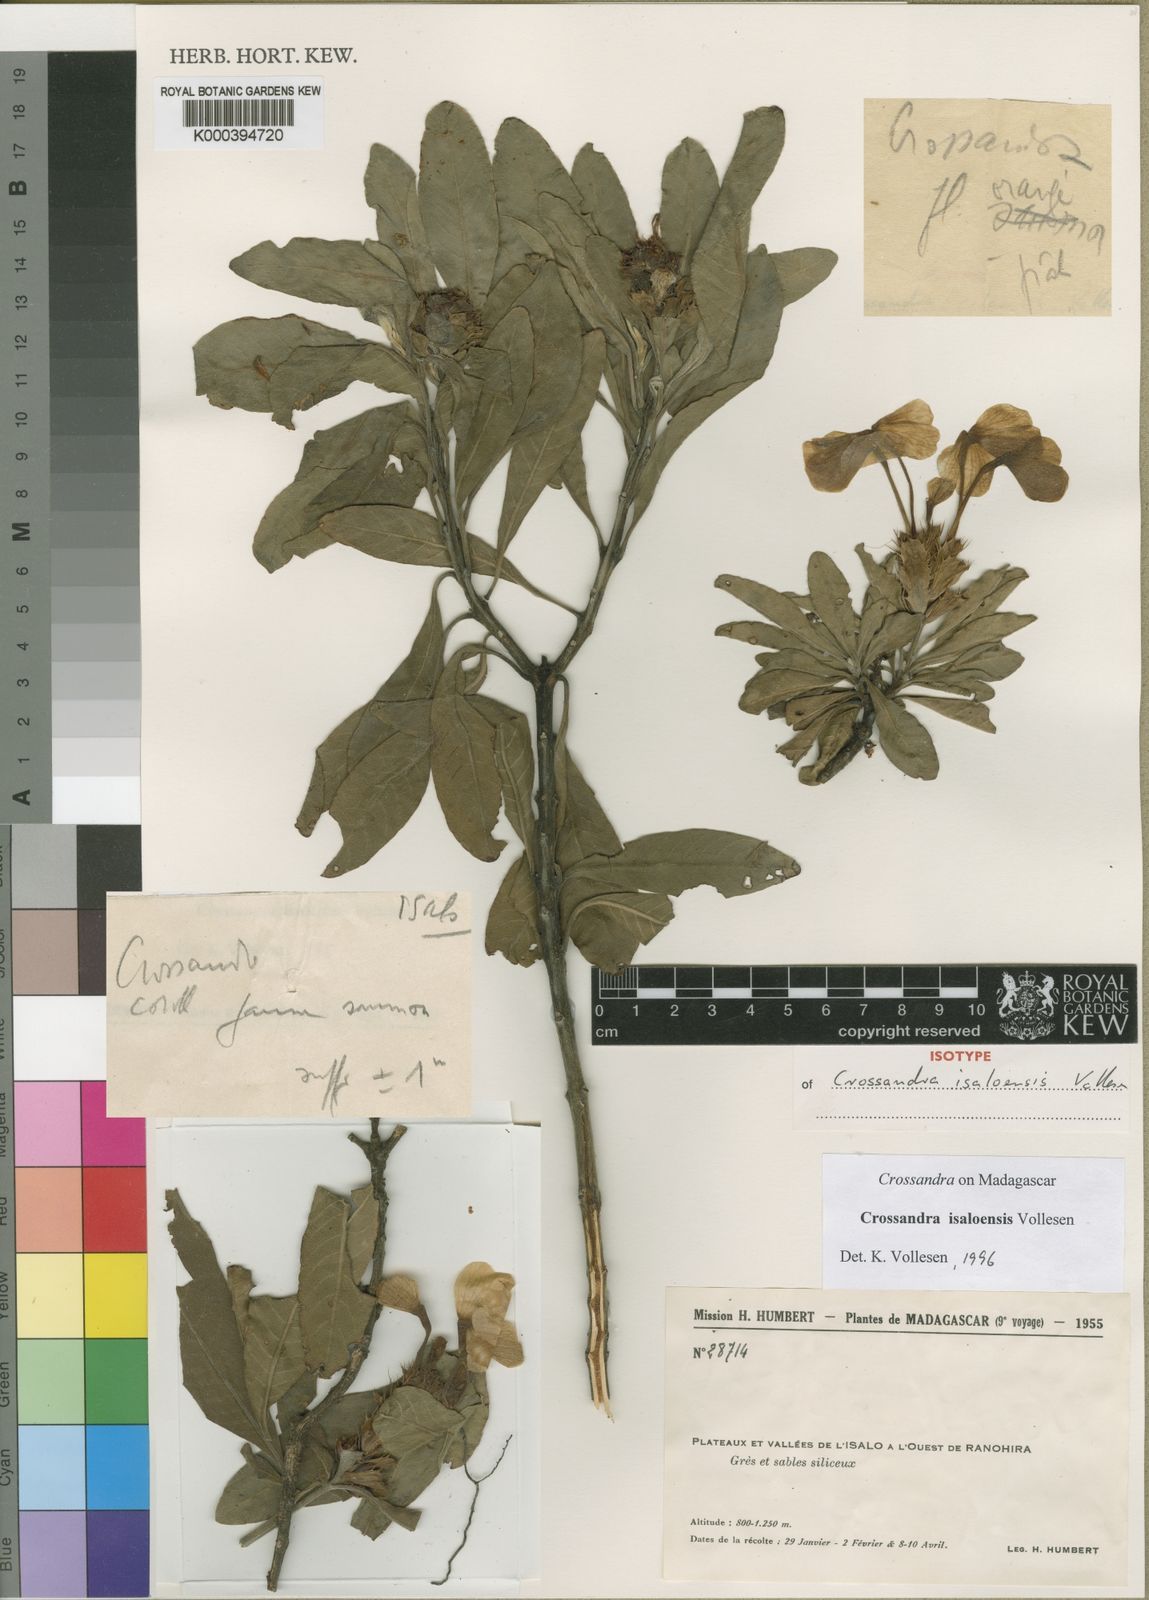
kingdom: Plantae
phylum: Tracheophyta
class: Magnoliopsida
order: Lamiales
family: Acanthaceae
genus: Crossandra
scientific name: Crossandra isaloensis
